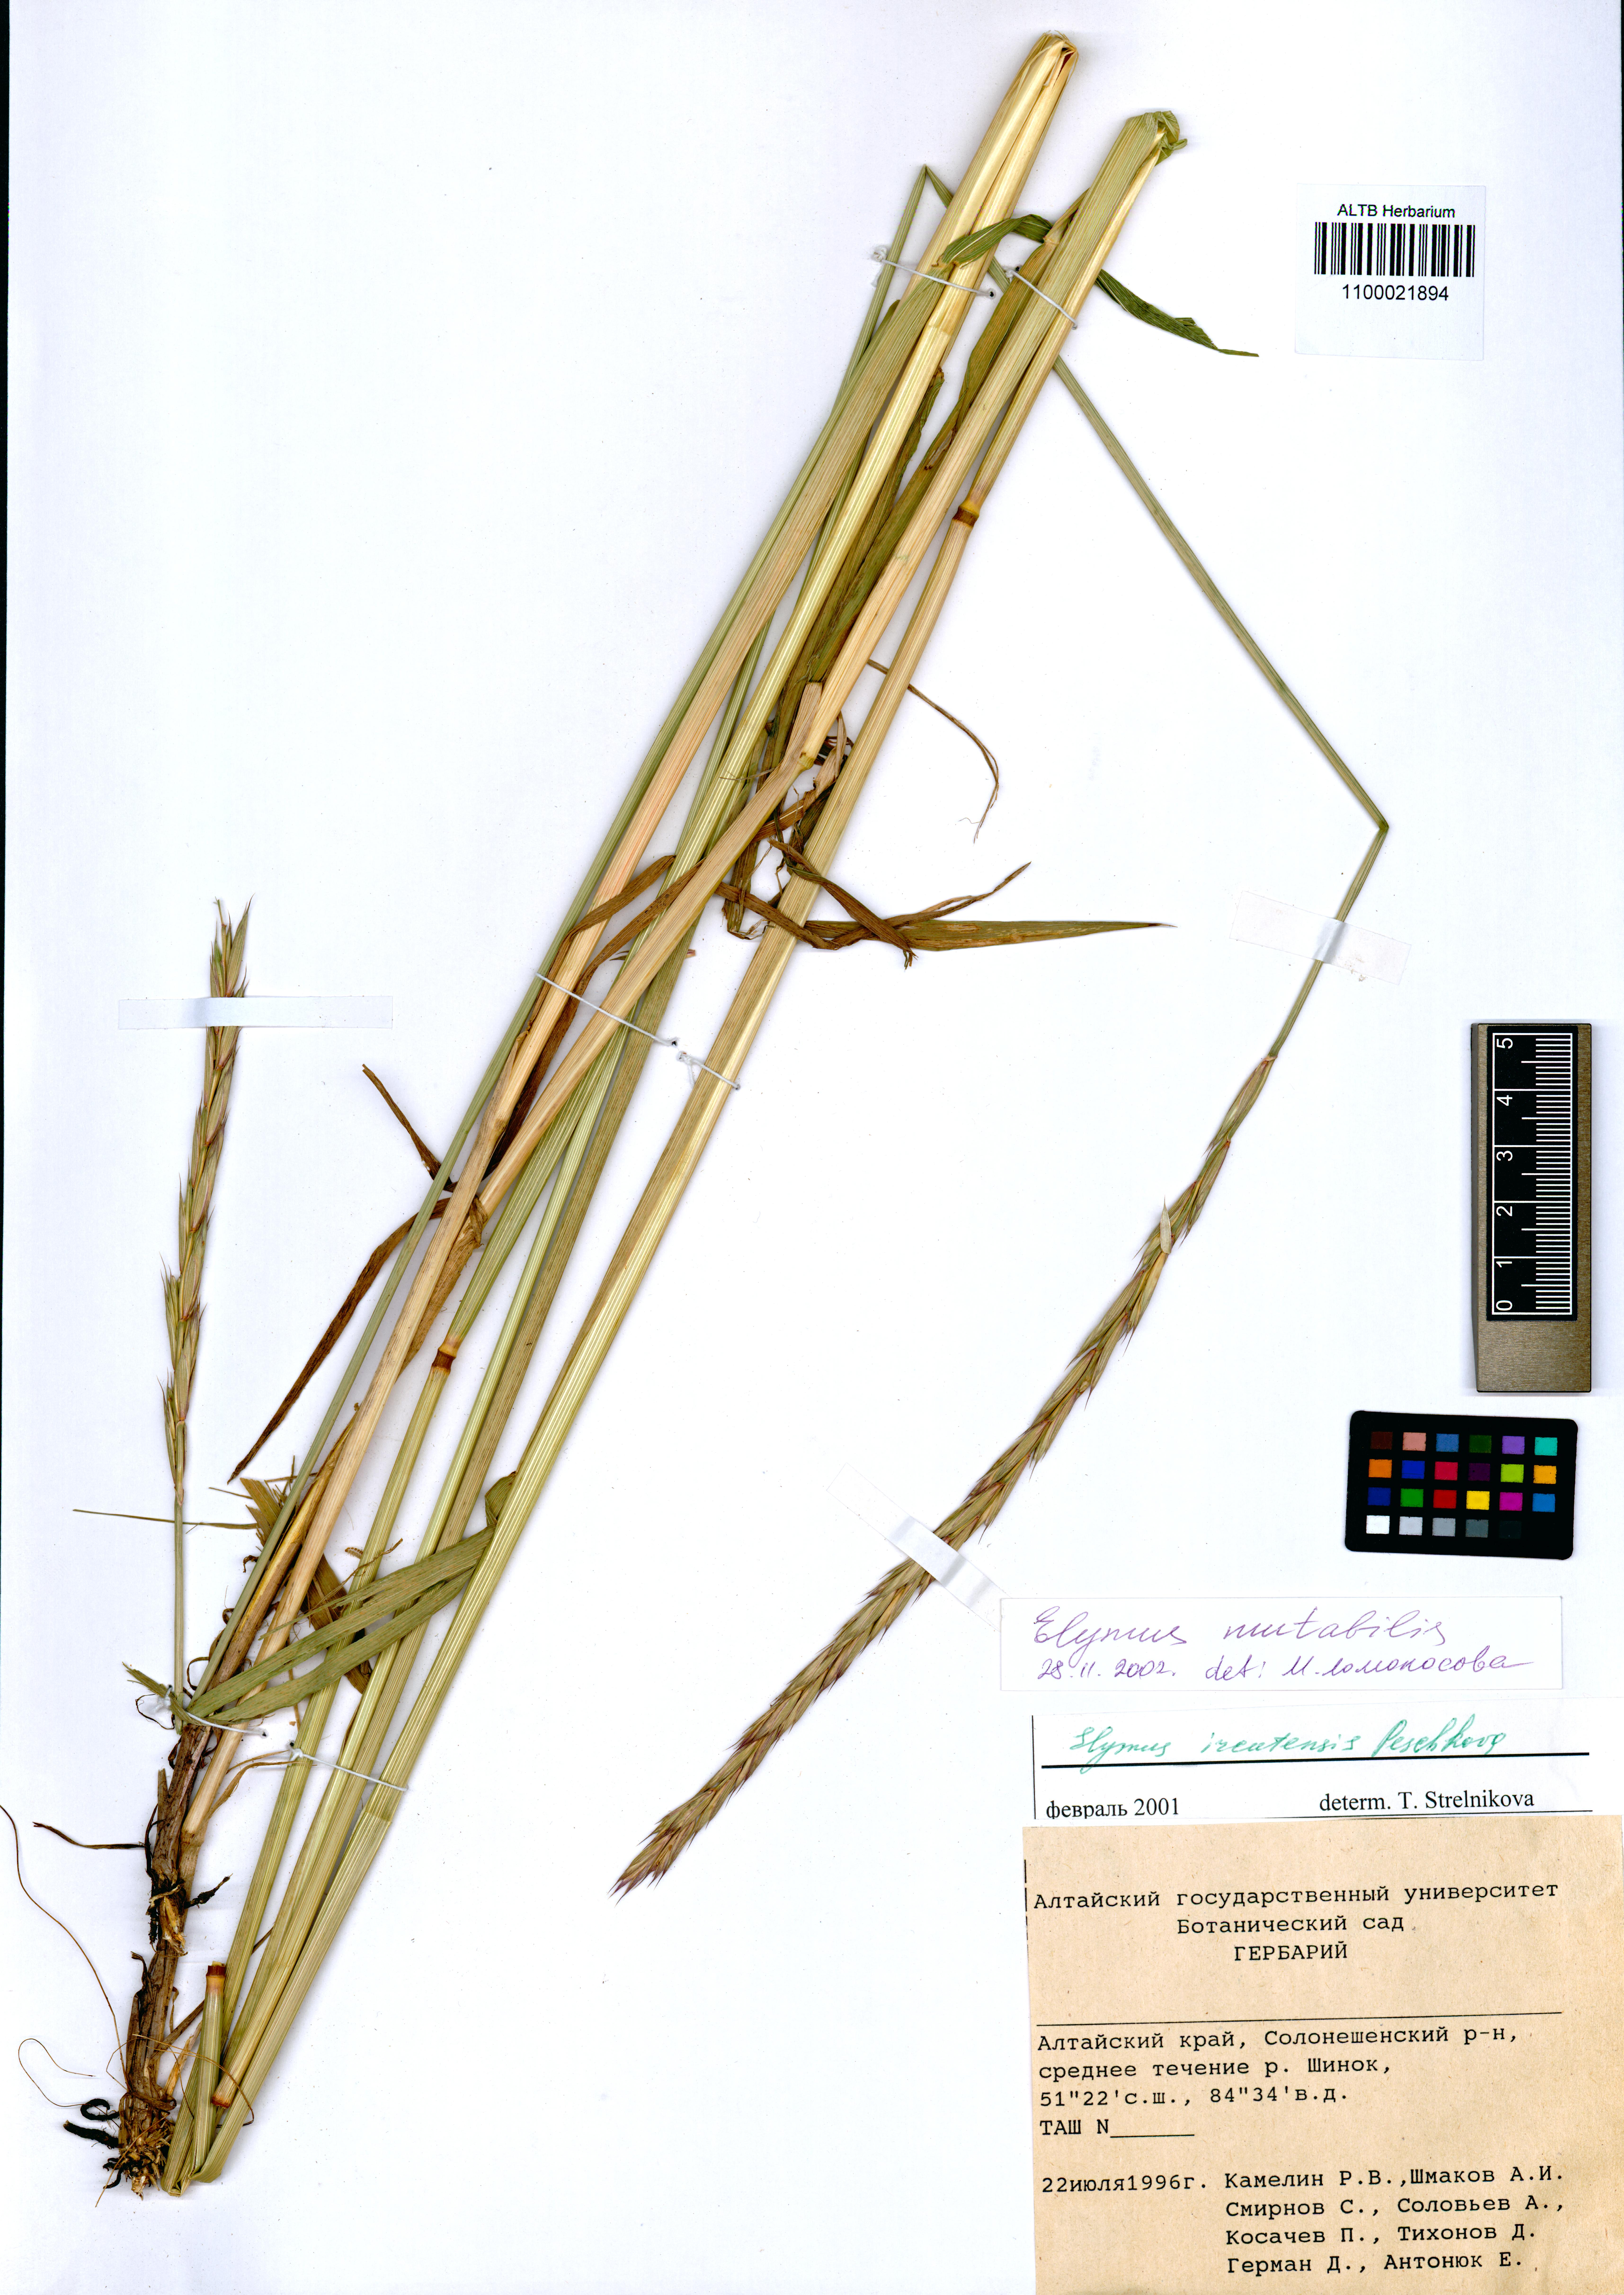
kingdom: Plantae
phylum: Tracheophyta
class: Liliopsida
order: Poales
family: Poaceae
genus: Elymus
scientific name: Elymus mutabilis
